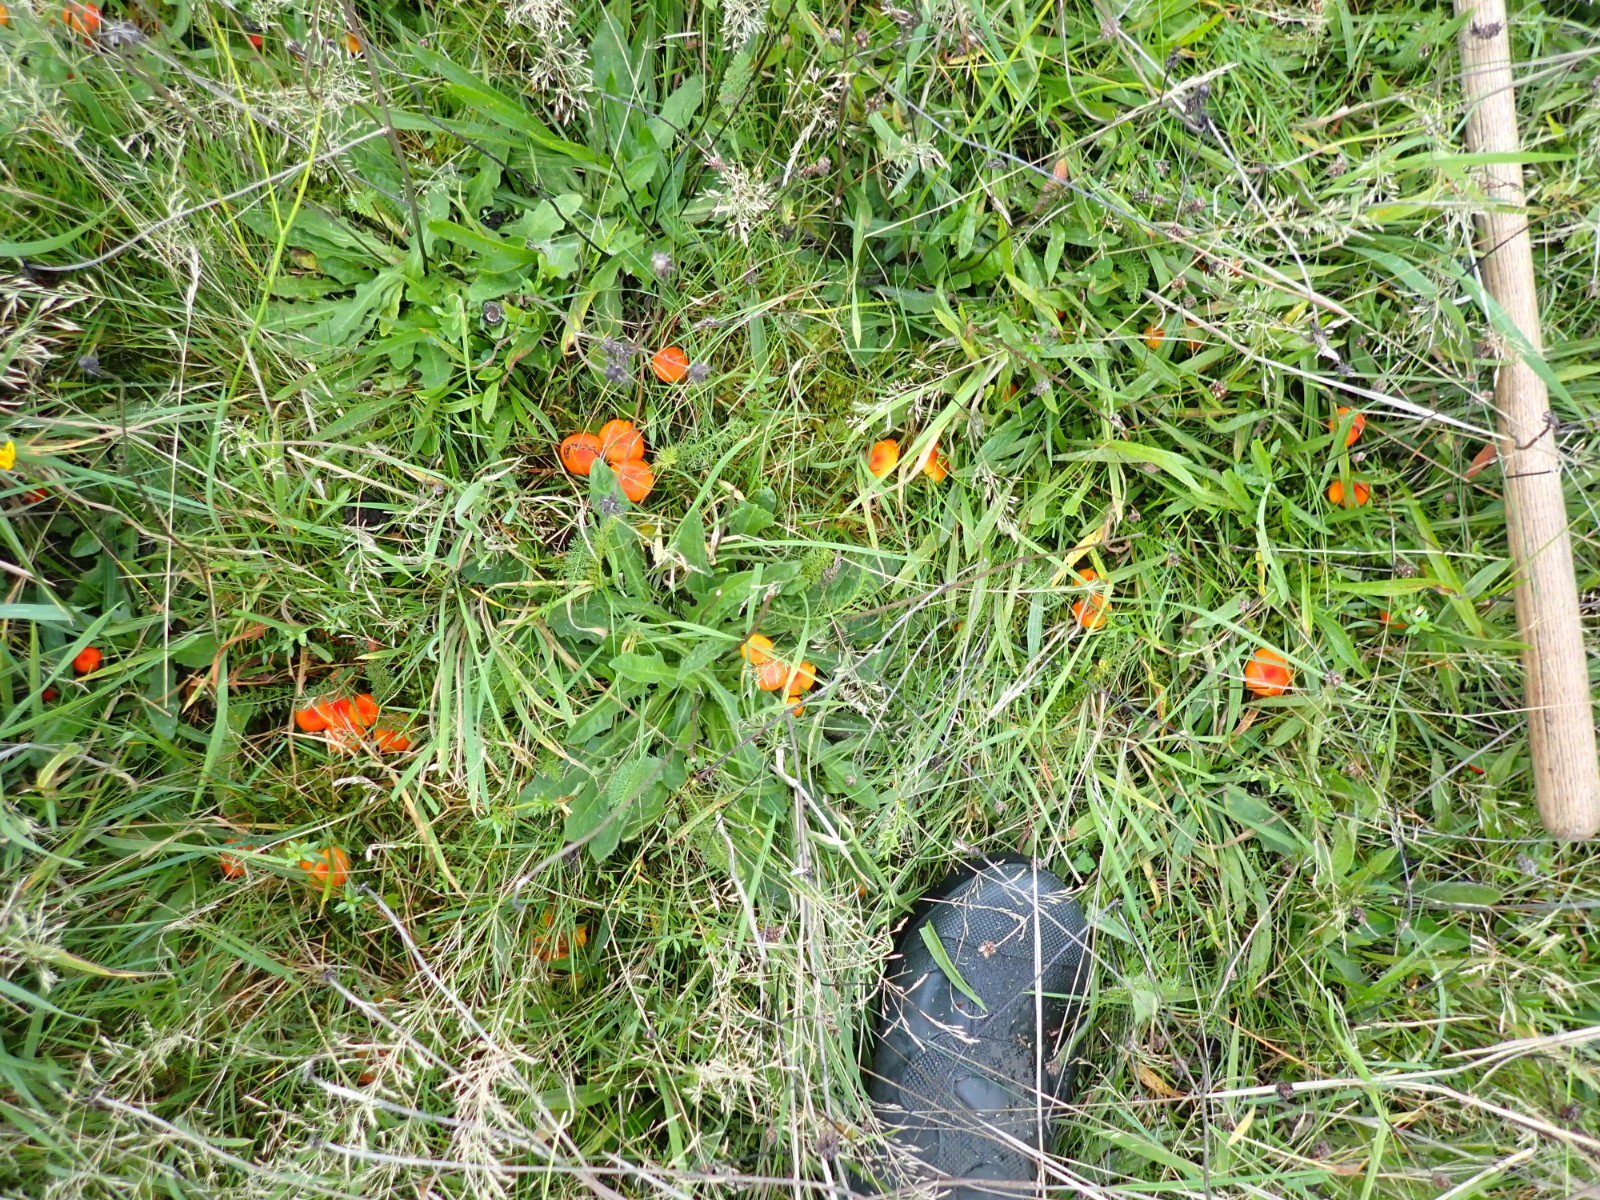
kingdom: Fungi
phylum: Basidiomycota
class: Agaricomycetes
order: Agaricales
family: Hygrophoraceae
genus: Hygrocybe
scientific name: Hygrocybe miniata
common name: mønje-vokshat
